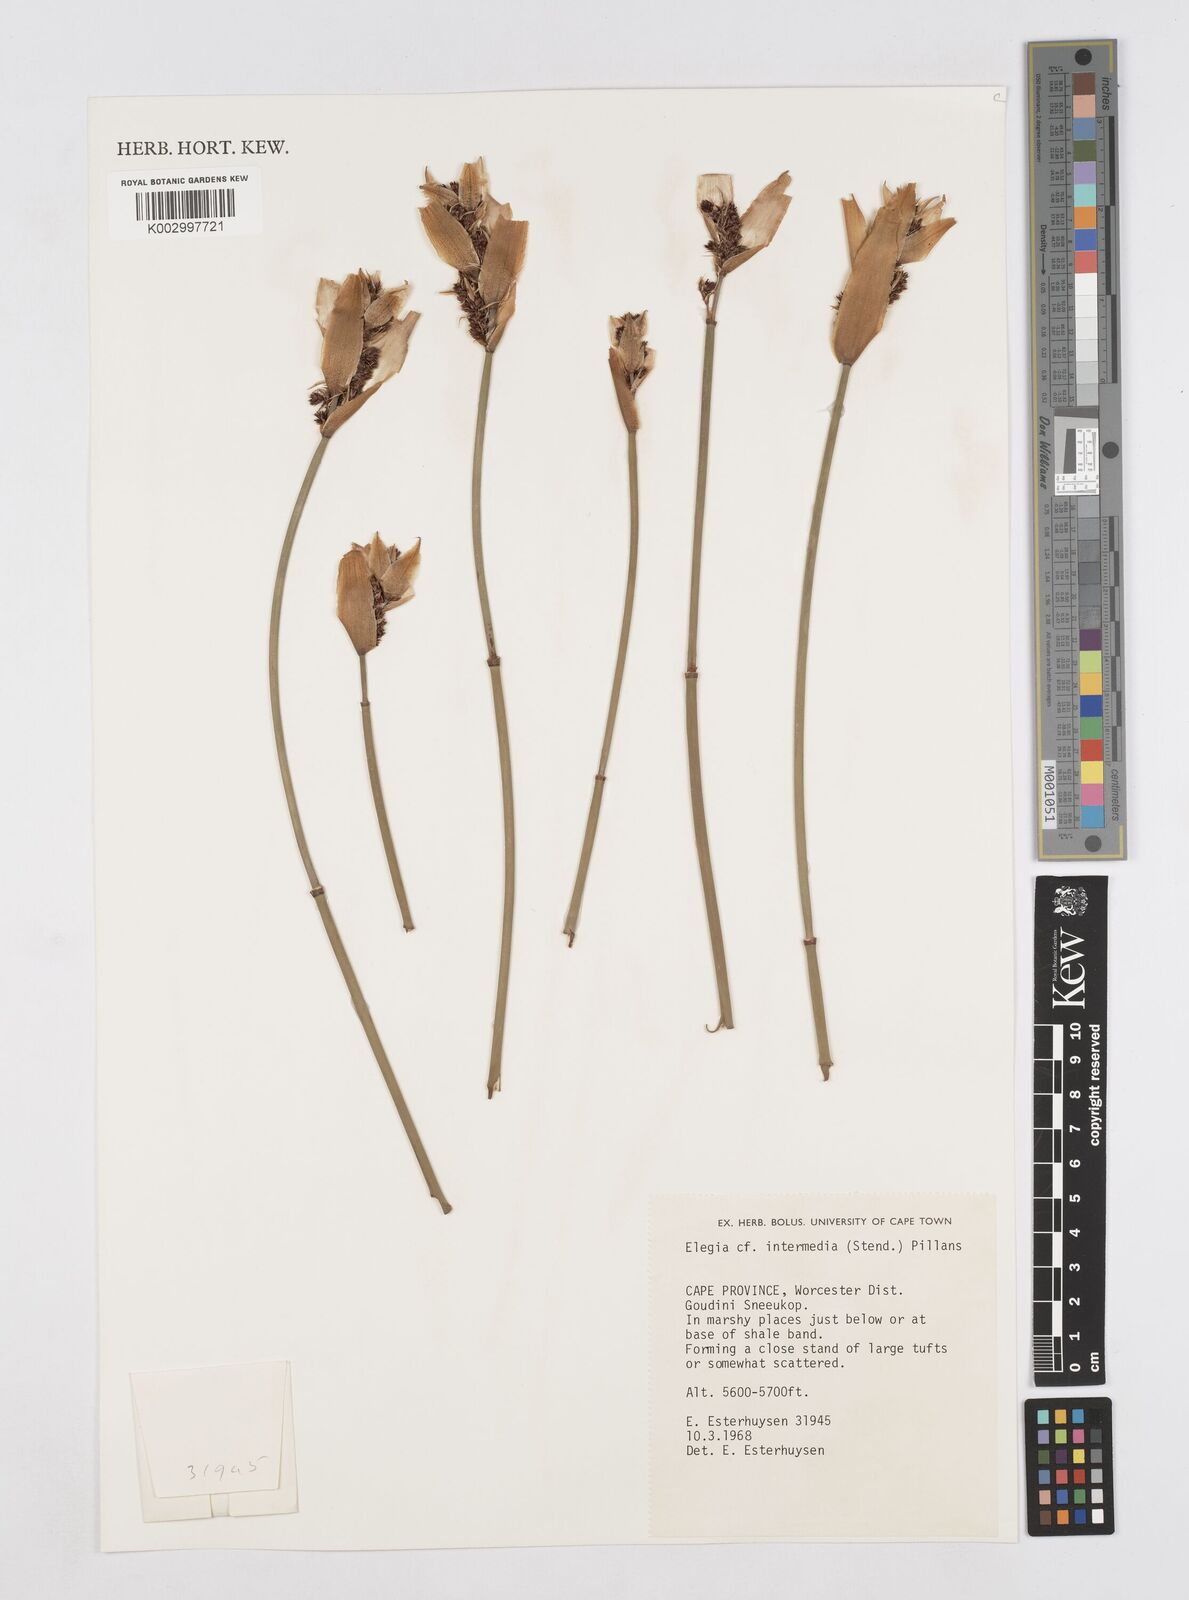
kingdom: Plantae
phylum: Tracheophyta
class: Liliopsida
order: Poales
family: Restionaceae
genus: Elegia
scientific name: Elegia intermedia
